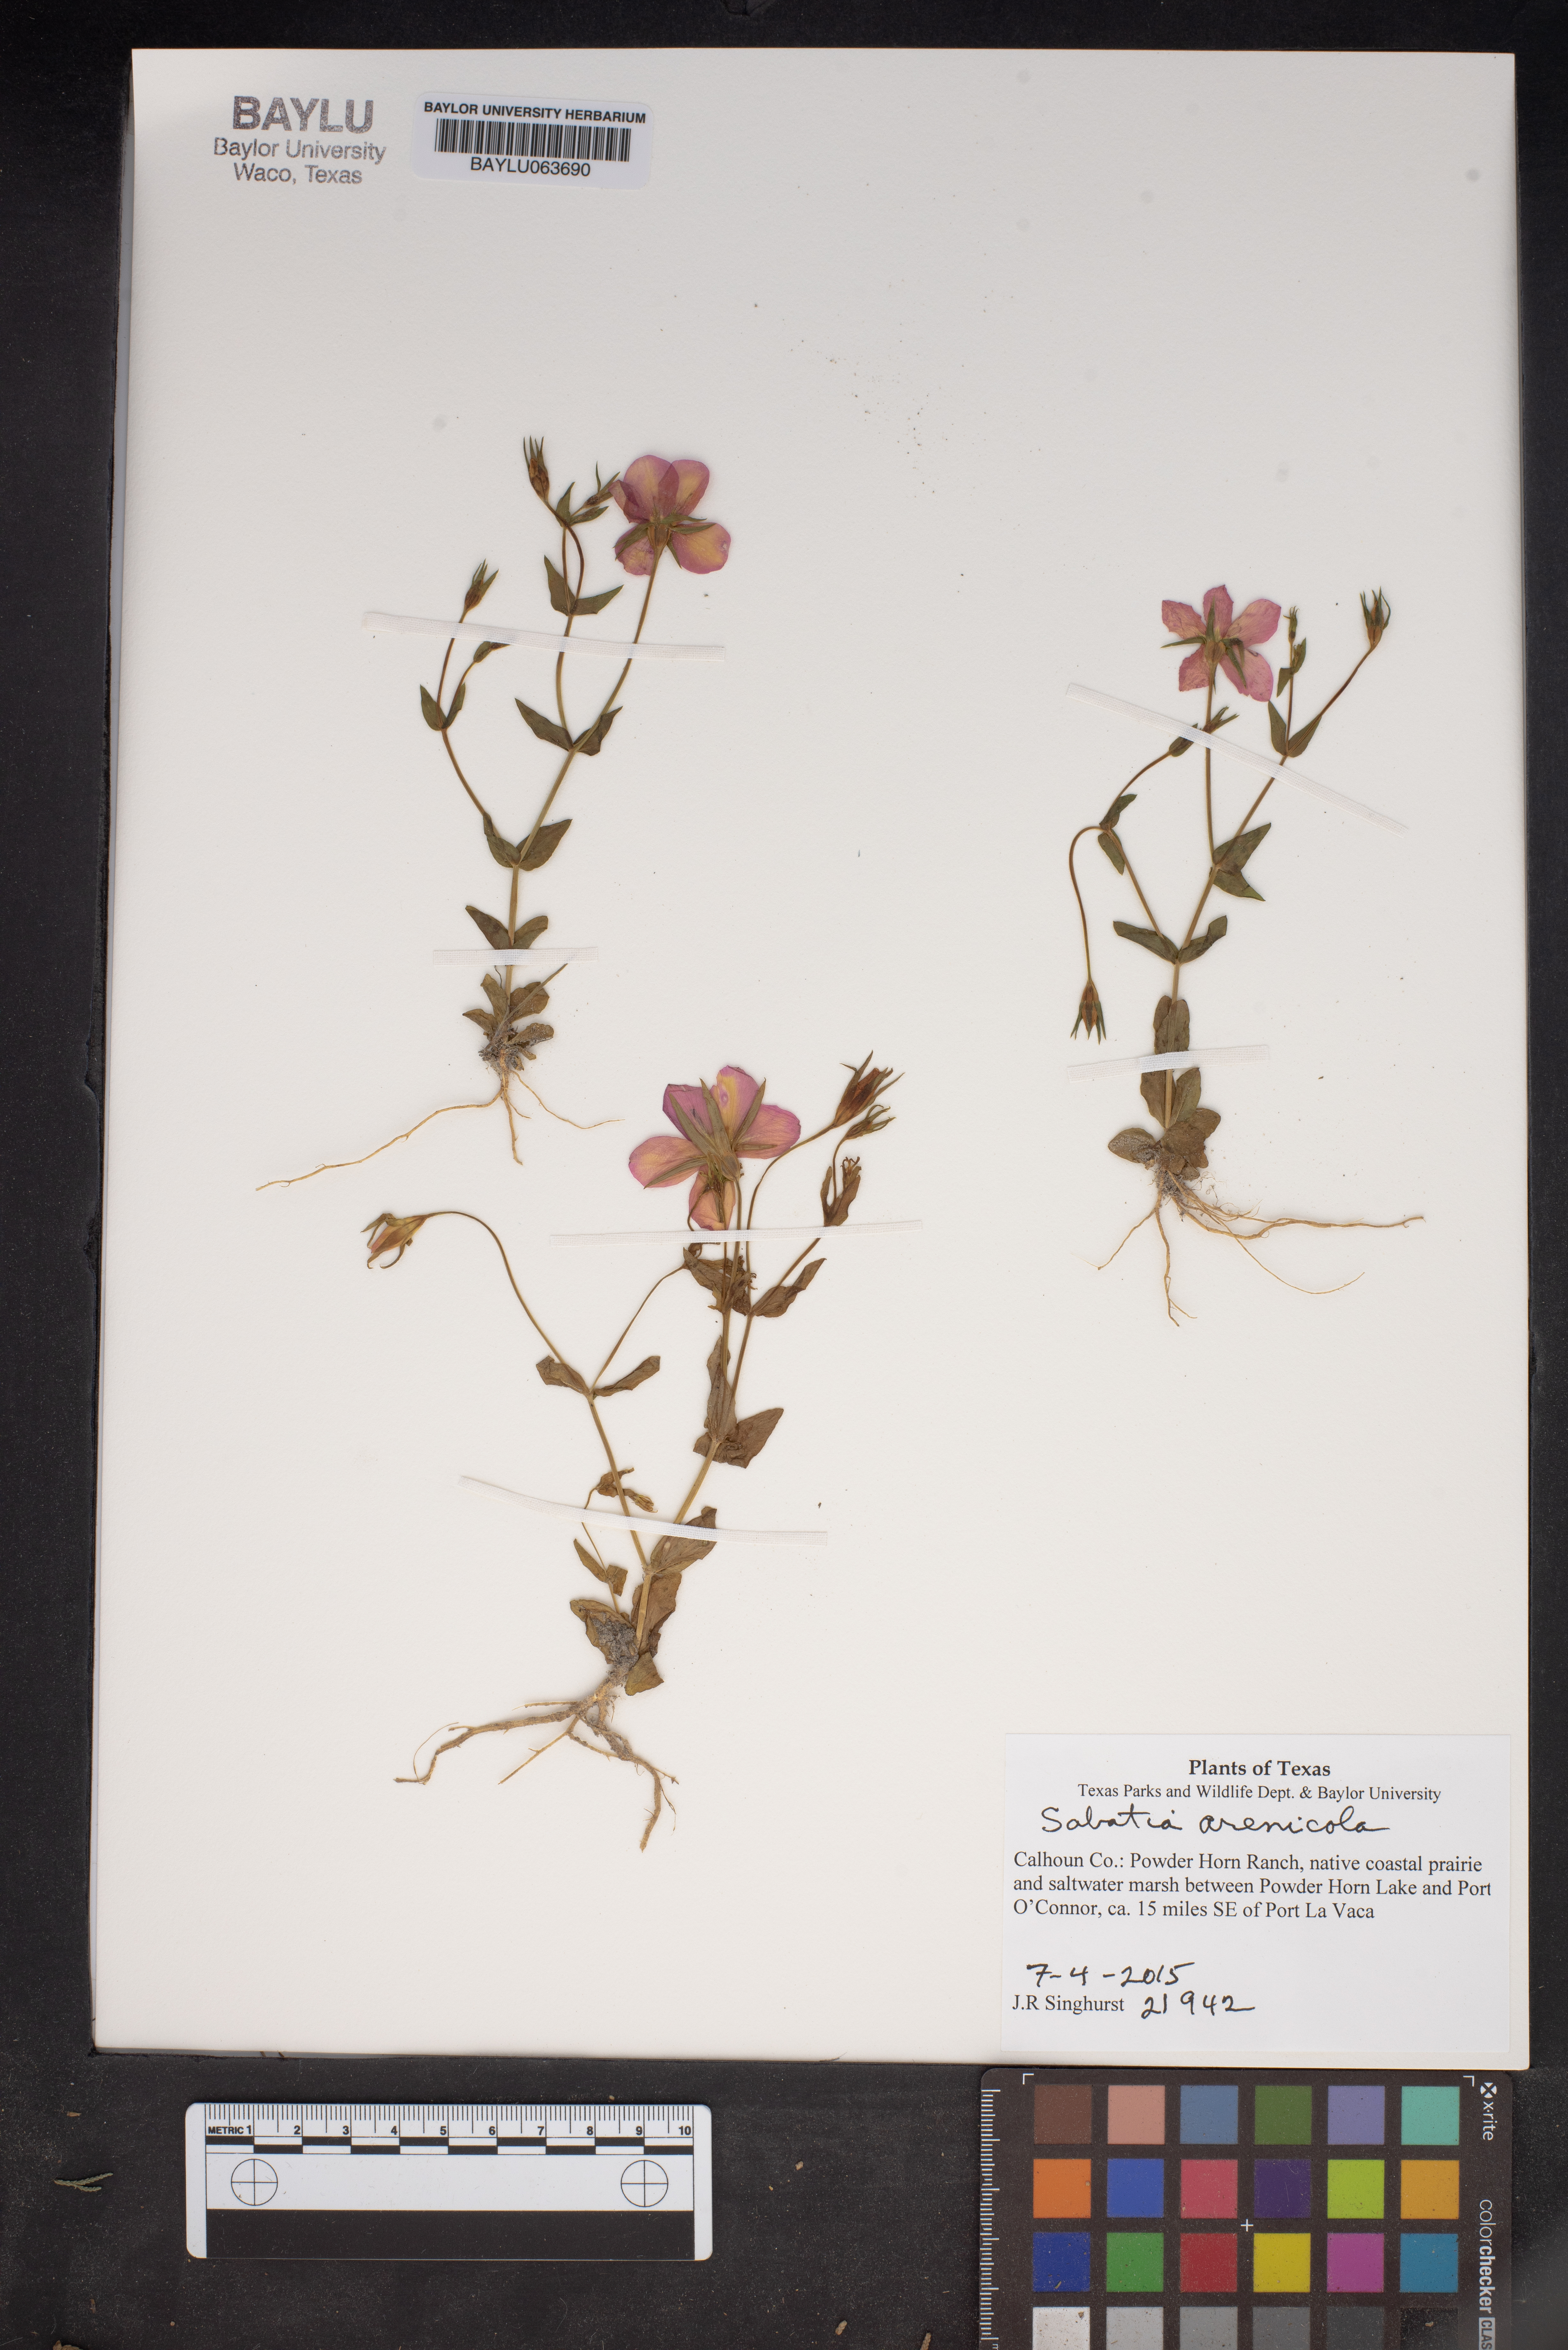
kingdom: Plantae
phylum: Tracheophyta
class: Magnoliopsida
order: Gentianales
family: Gentianaceae
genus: Sabatia
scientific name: Sabatia arenicola
